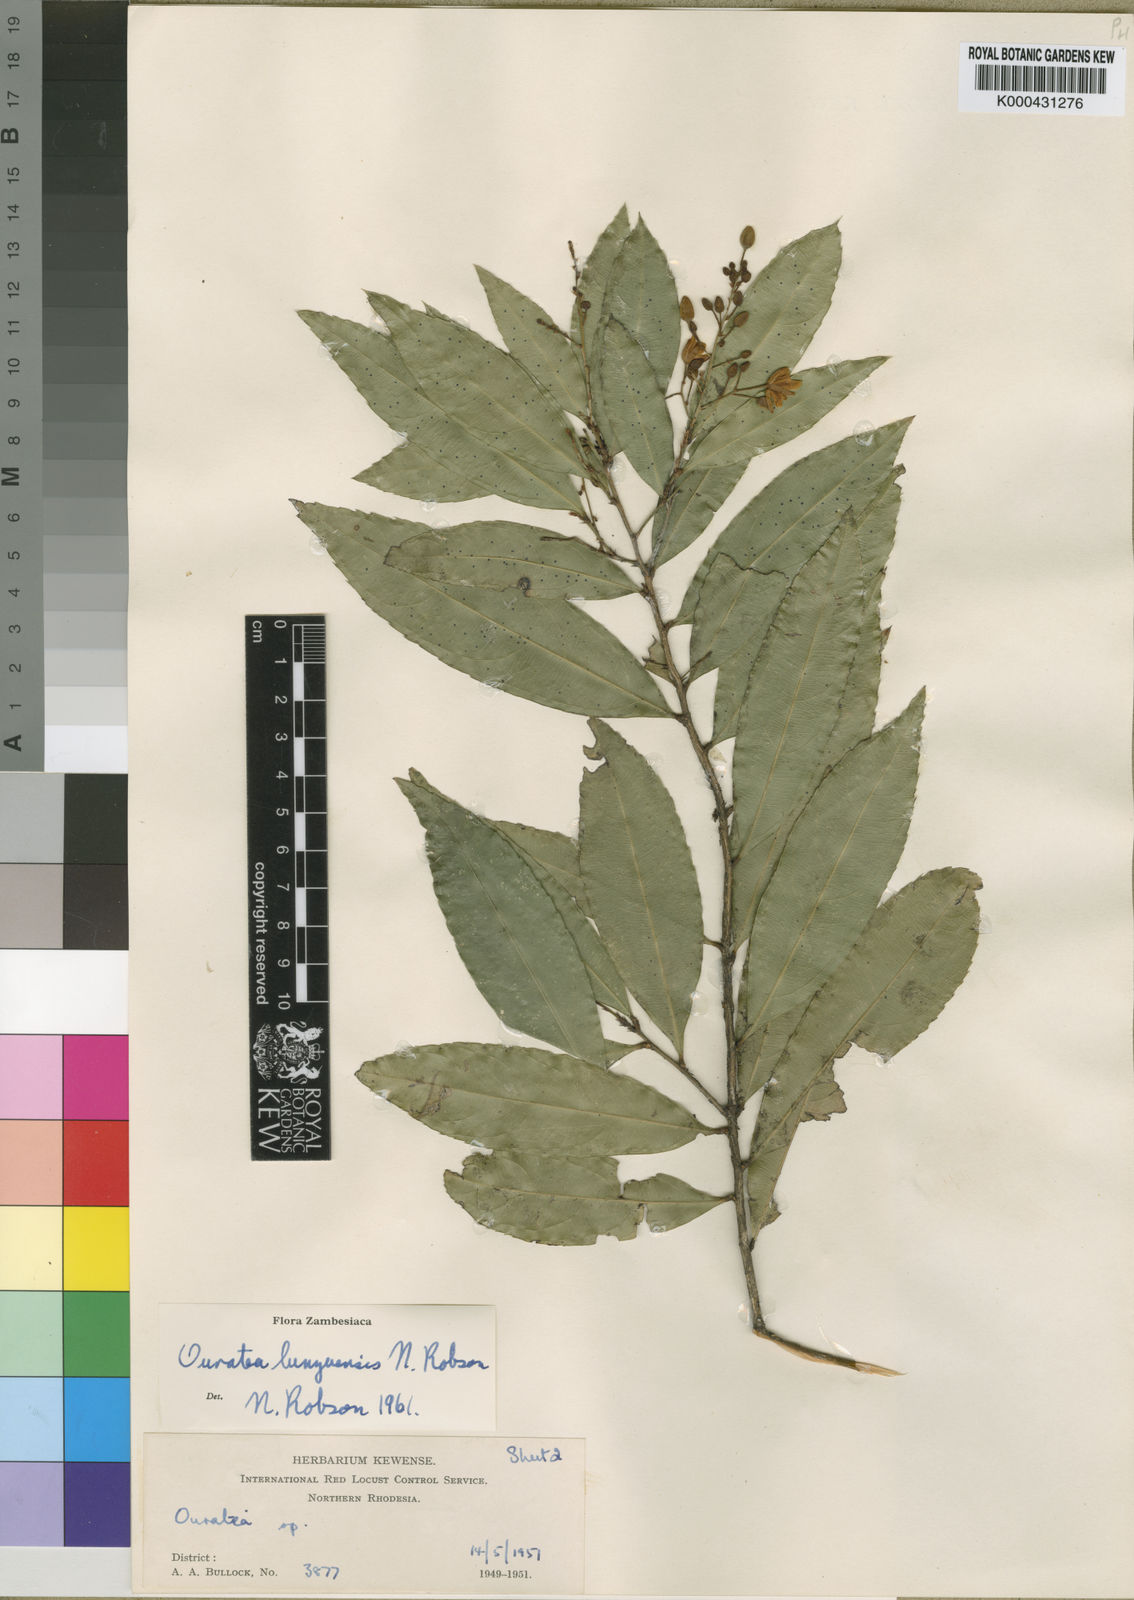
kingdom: Plantae
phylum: Tracheophyta
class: Magnoliopsida
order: Malpighiales
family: Ochnaceae
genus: Campylospermum
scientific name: Campylospermum reticulatum
